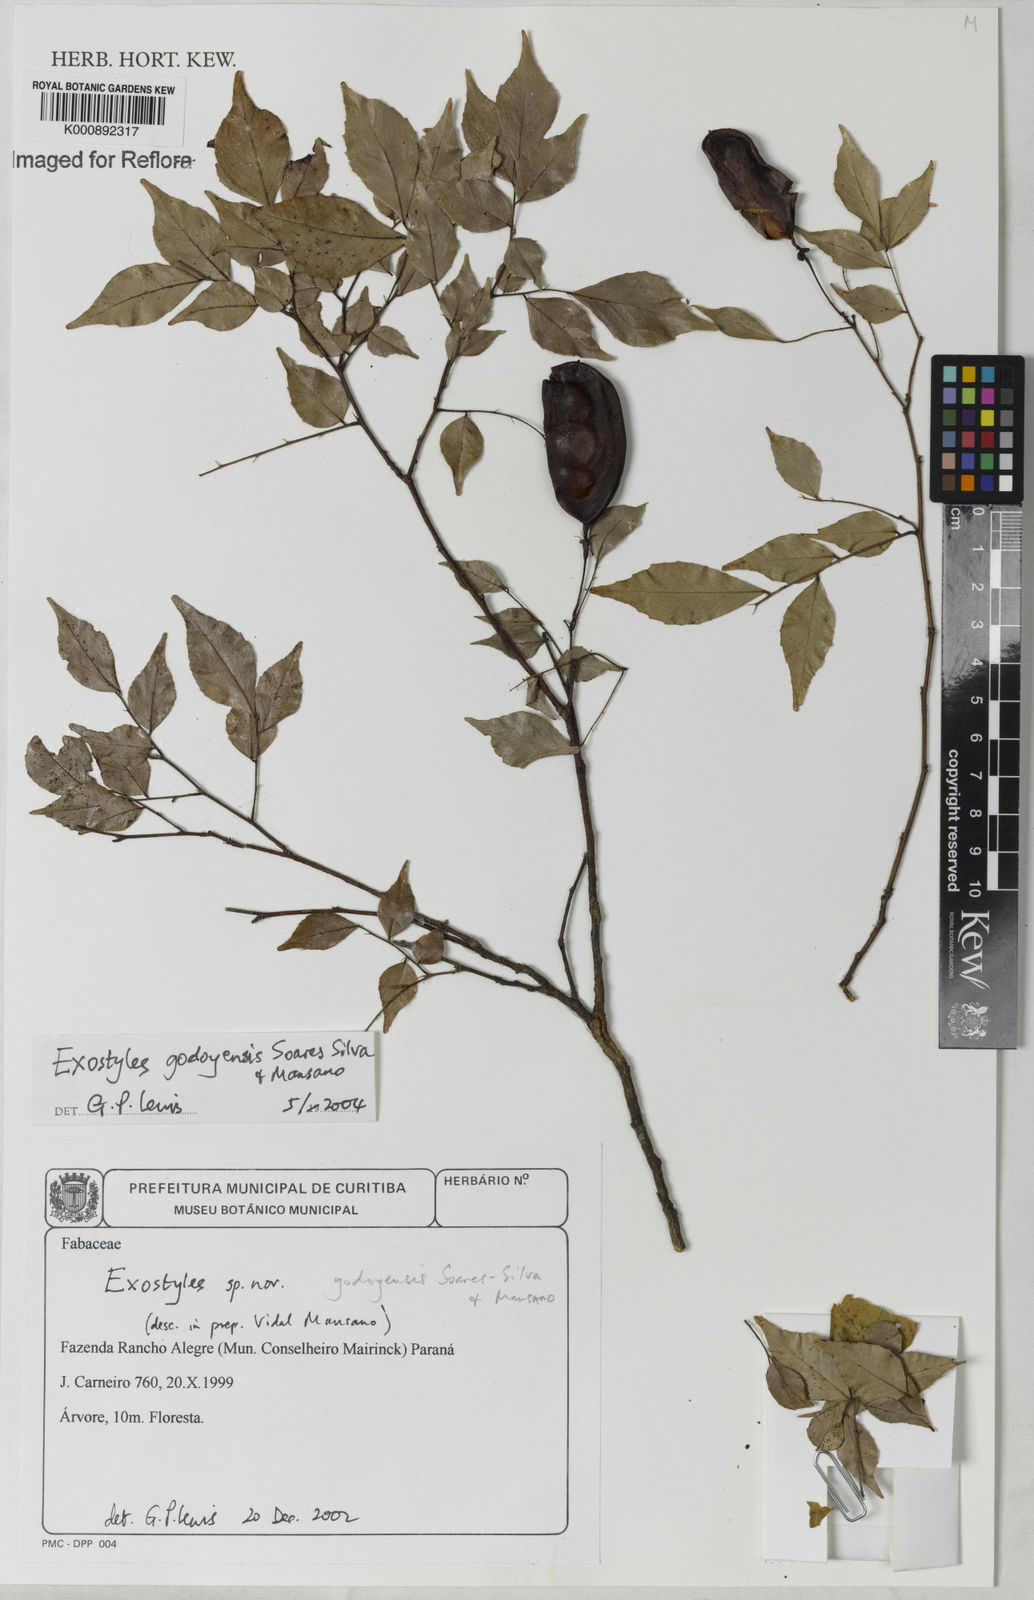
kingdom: Plantae
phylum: Tracheophyta
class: Magnoliopsida
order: Fabales
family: Fabaceae
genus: Exostyles
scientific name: Exostyles godoyensis
